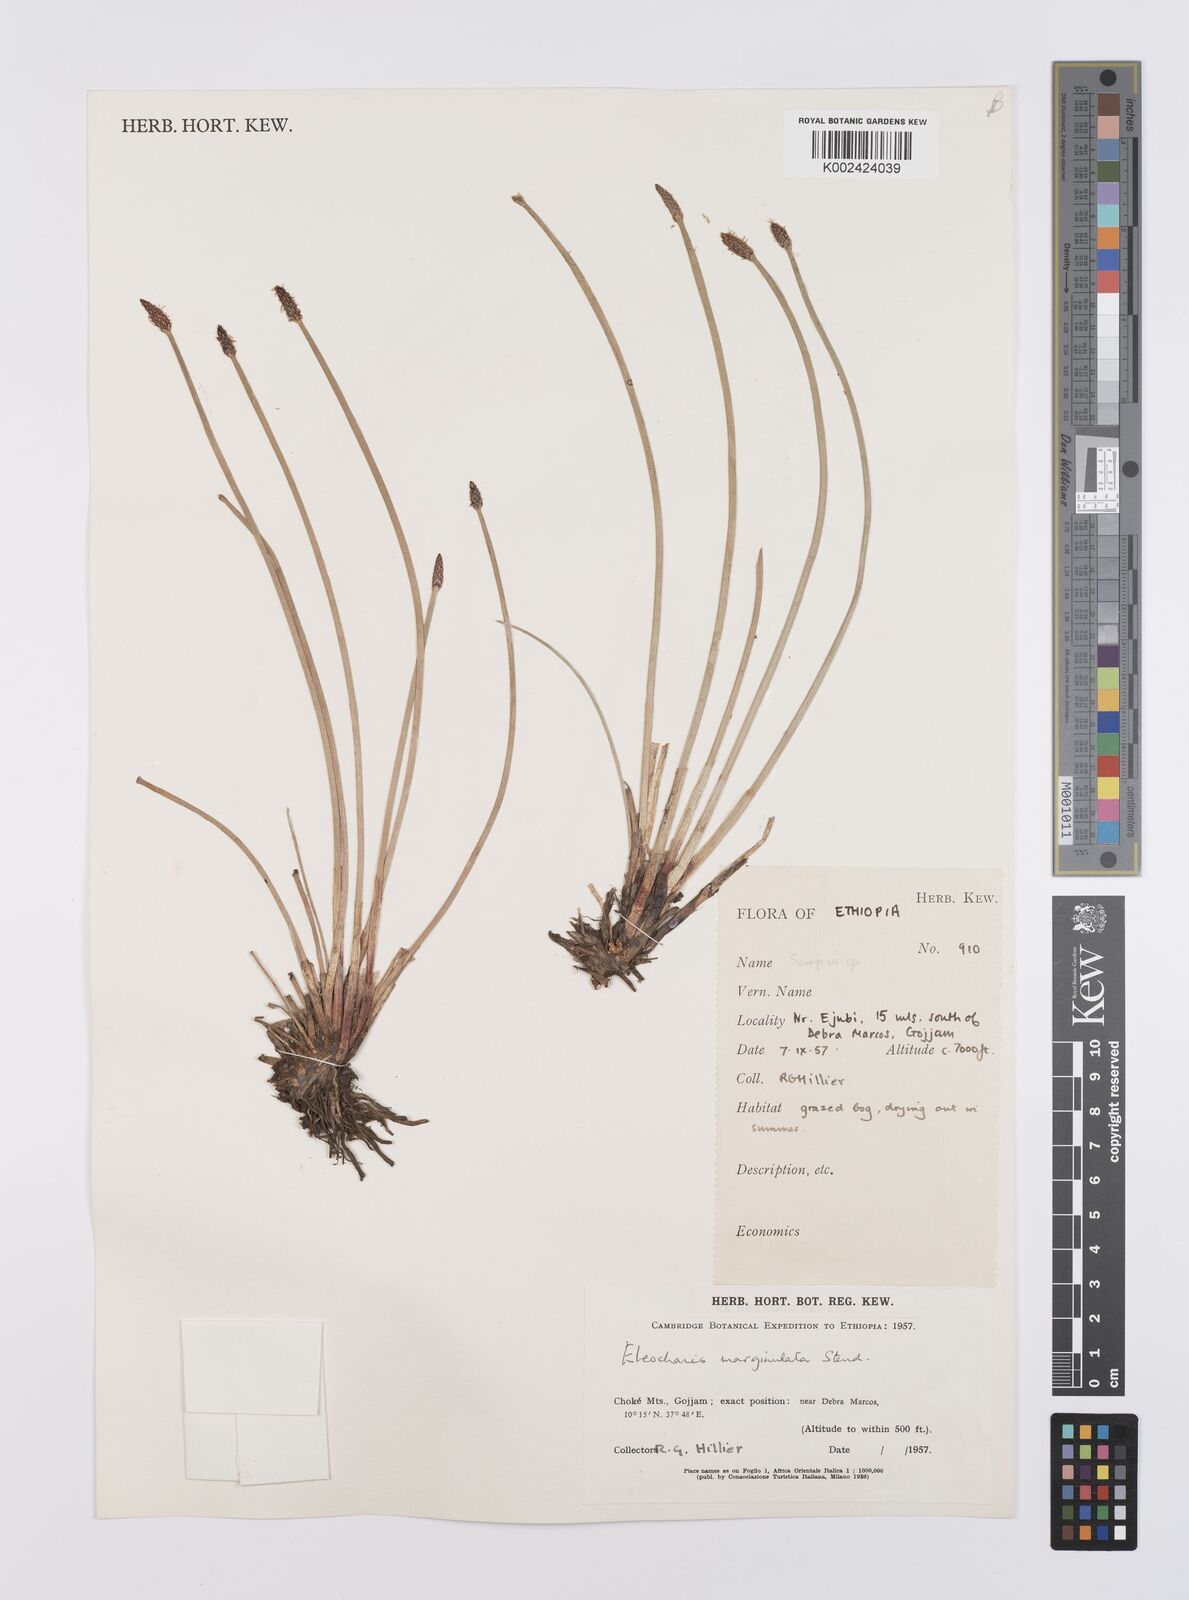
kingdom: Plantae
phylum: Tracheophyta
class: Liliopsida
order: Poales
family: Cyperaceae
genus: Eleocharis
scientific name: Eleocharis marginulata
